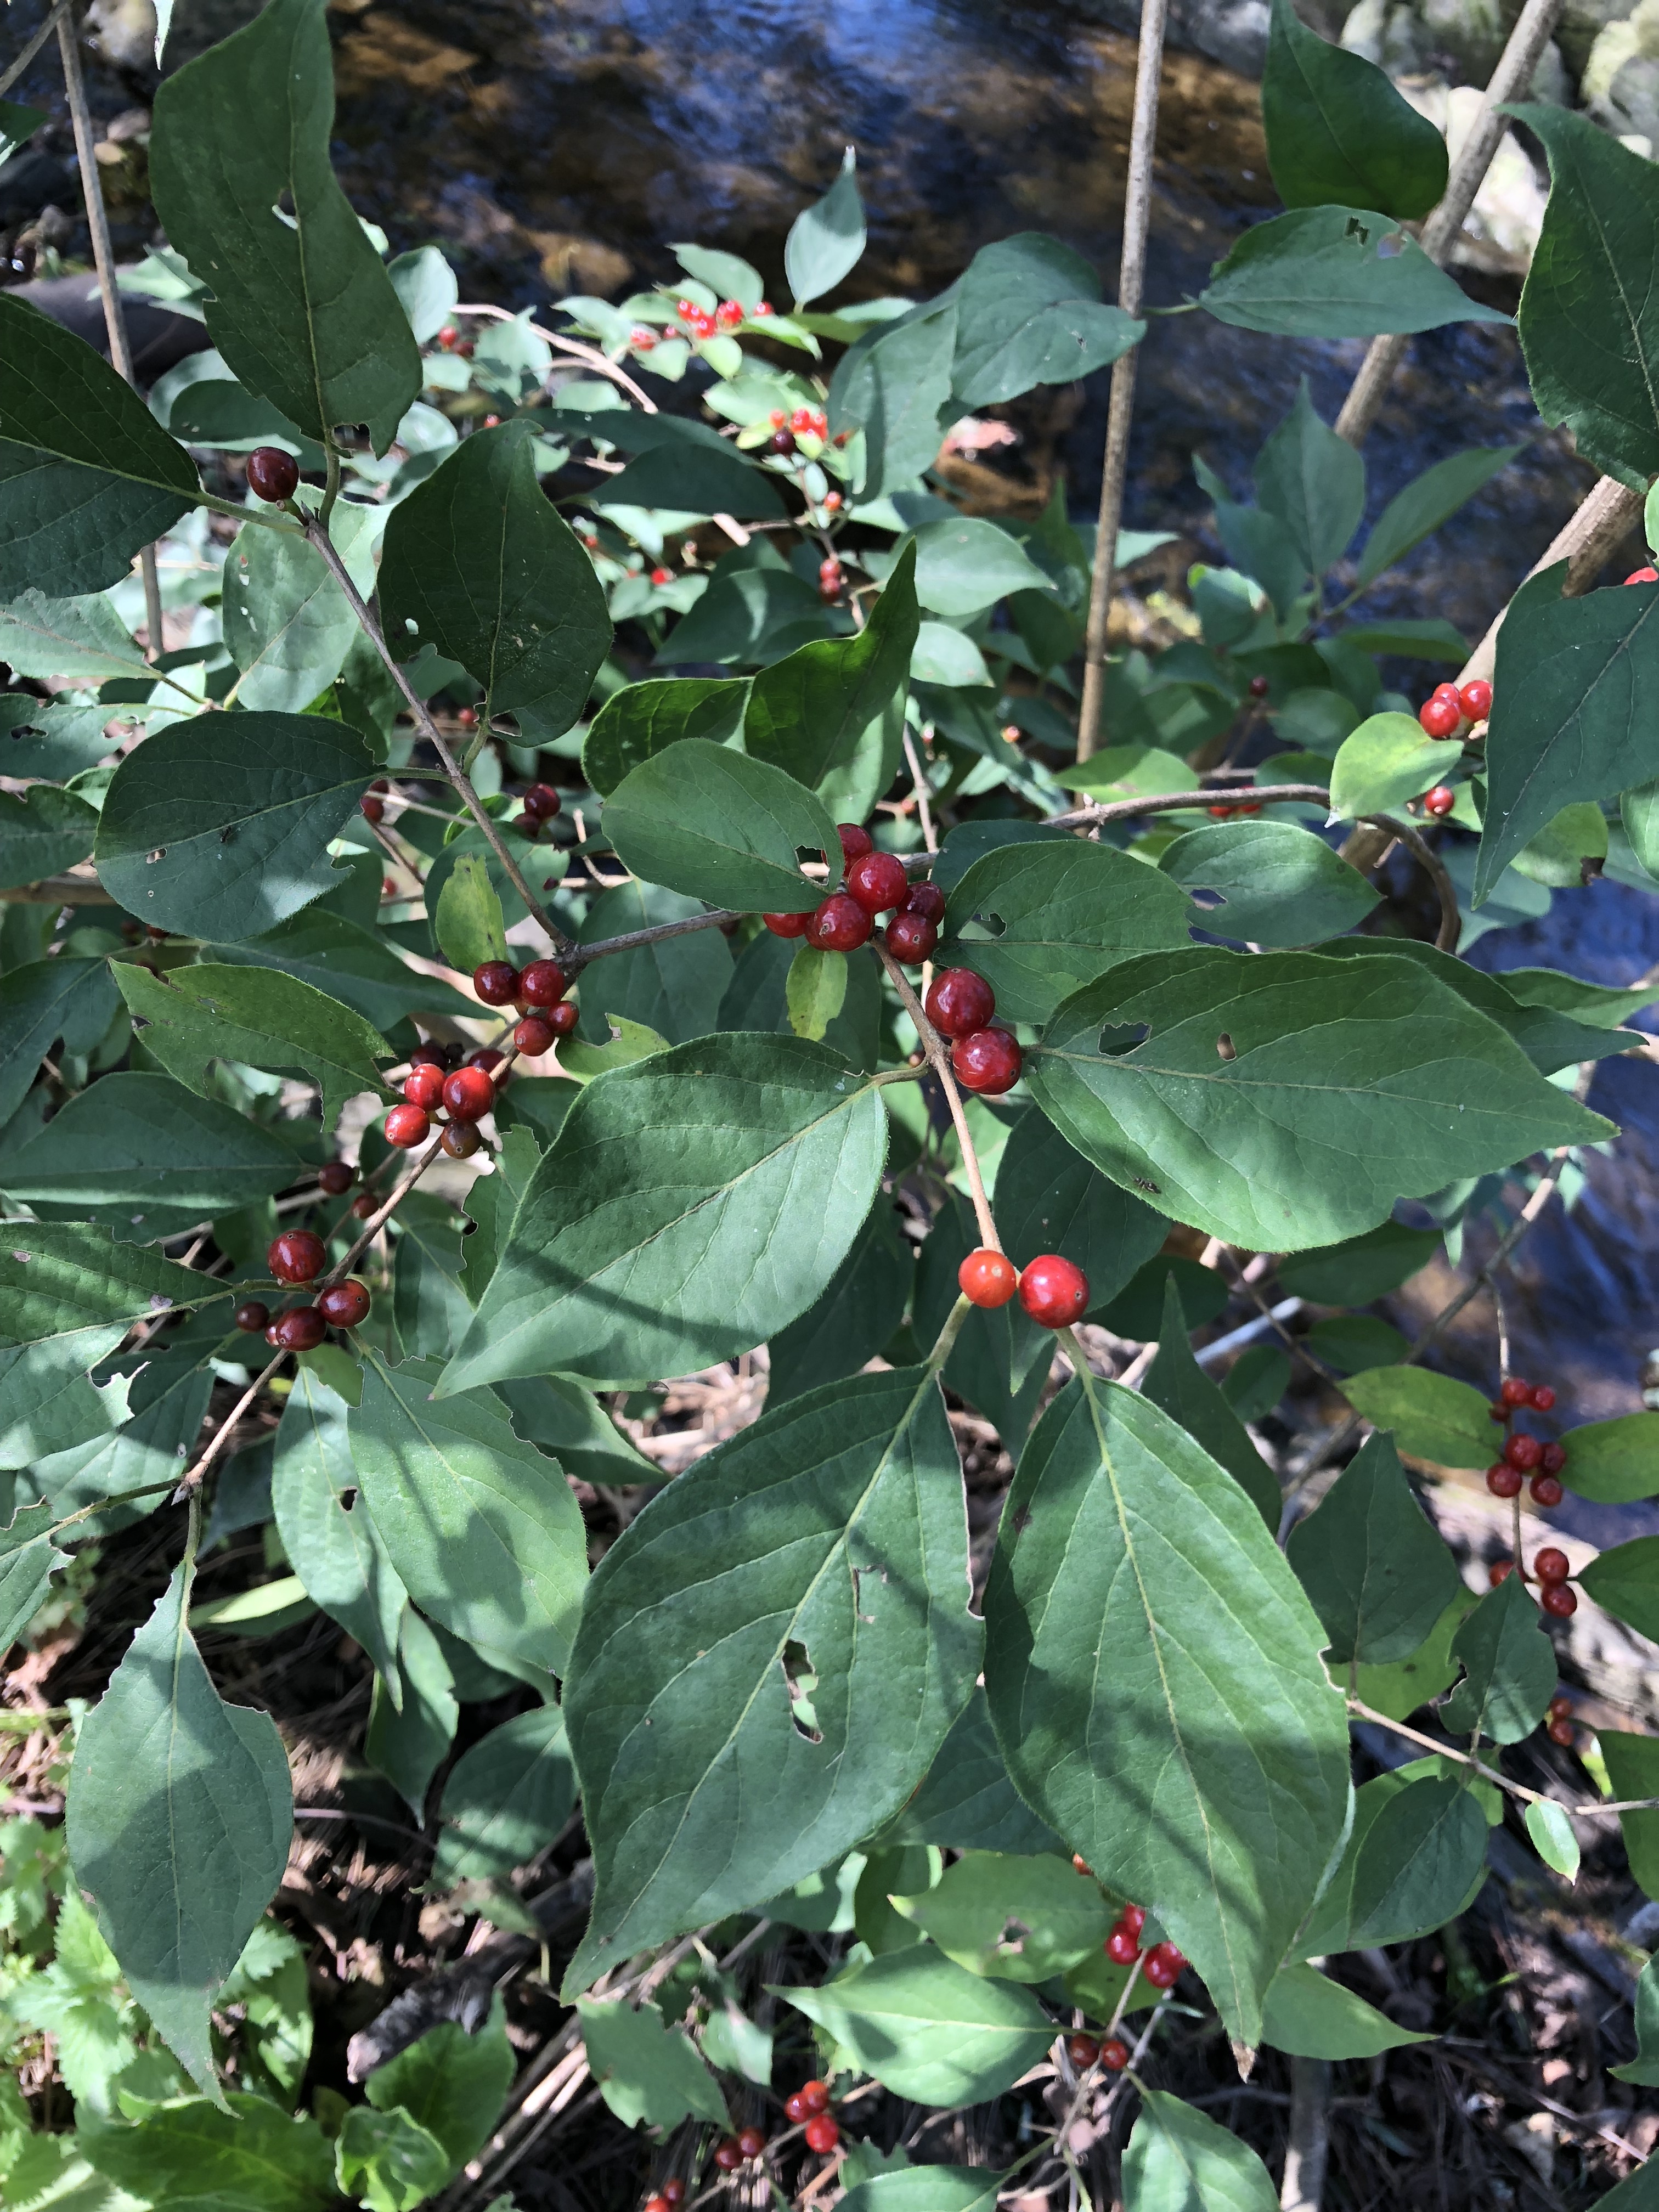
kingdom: Plantae
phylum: Tracheophyta
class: Magnoliopsida
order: Dipsacales
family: Caprifoliaceae
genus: Lonicera
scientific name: Lonicera maackii
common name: Amur honeysuckle
